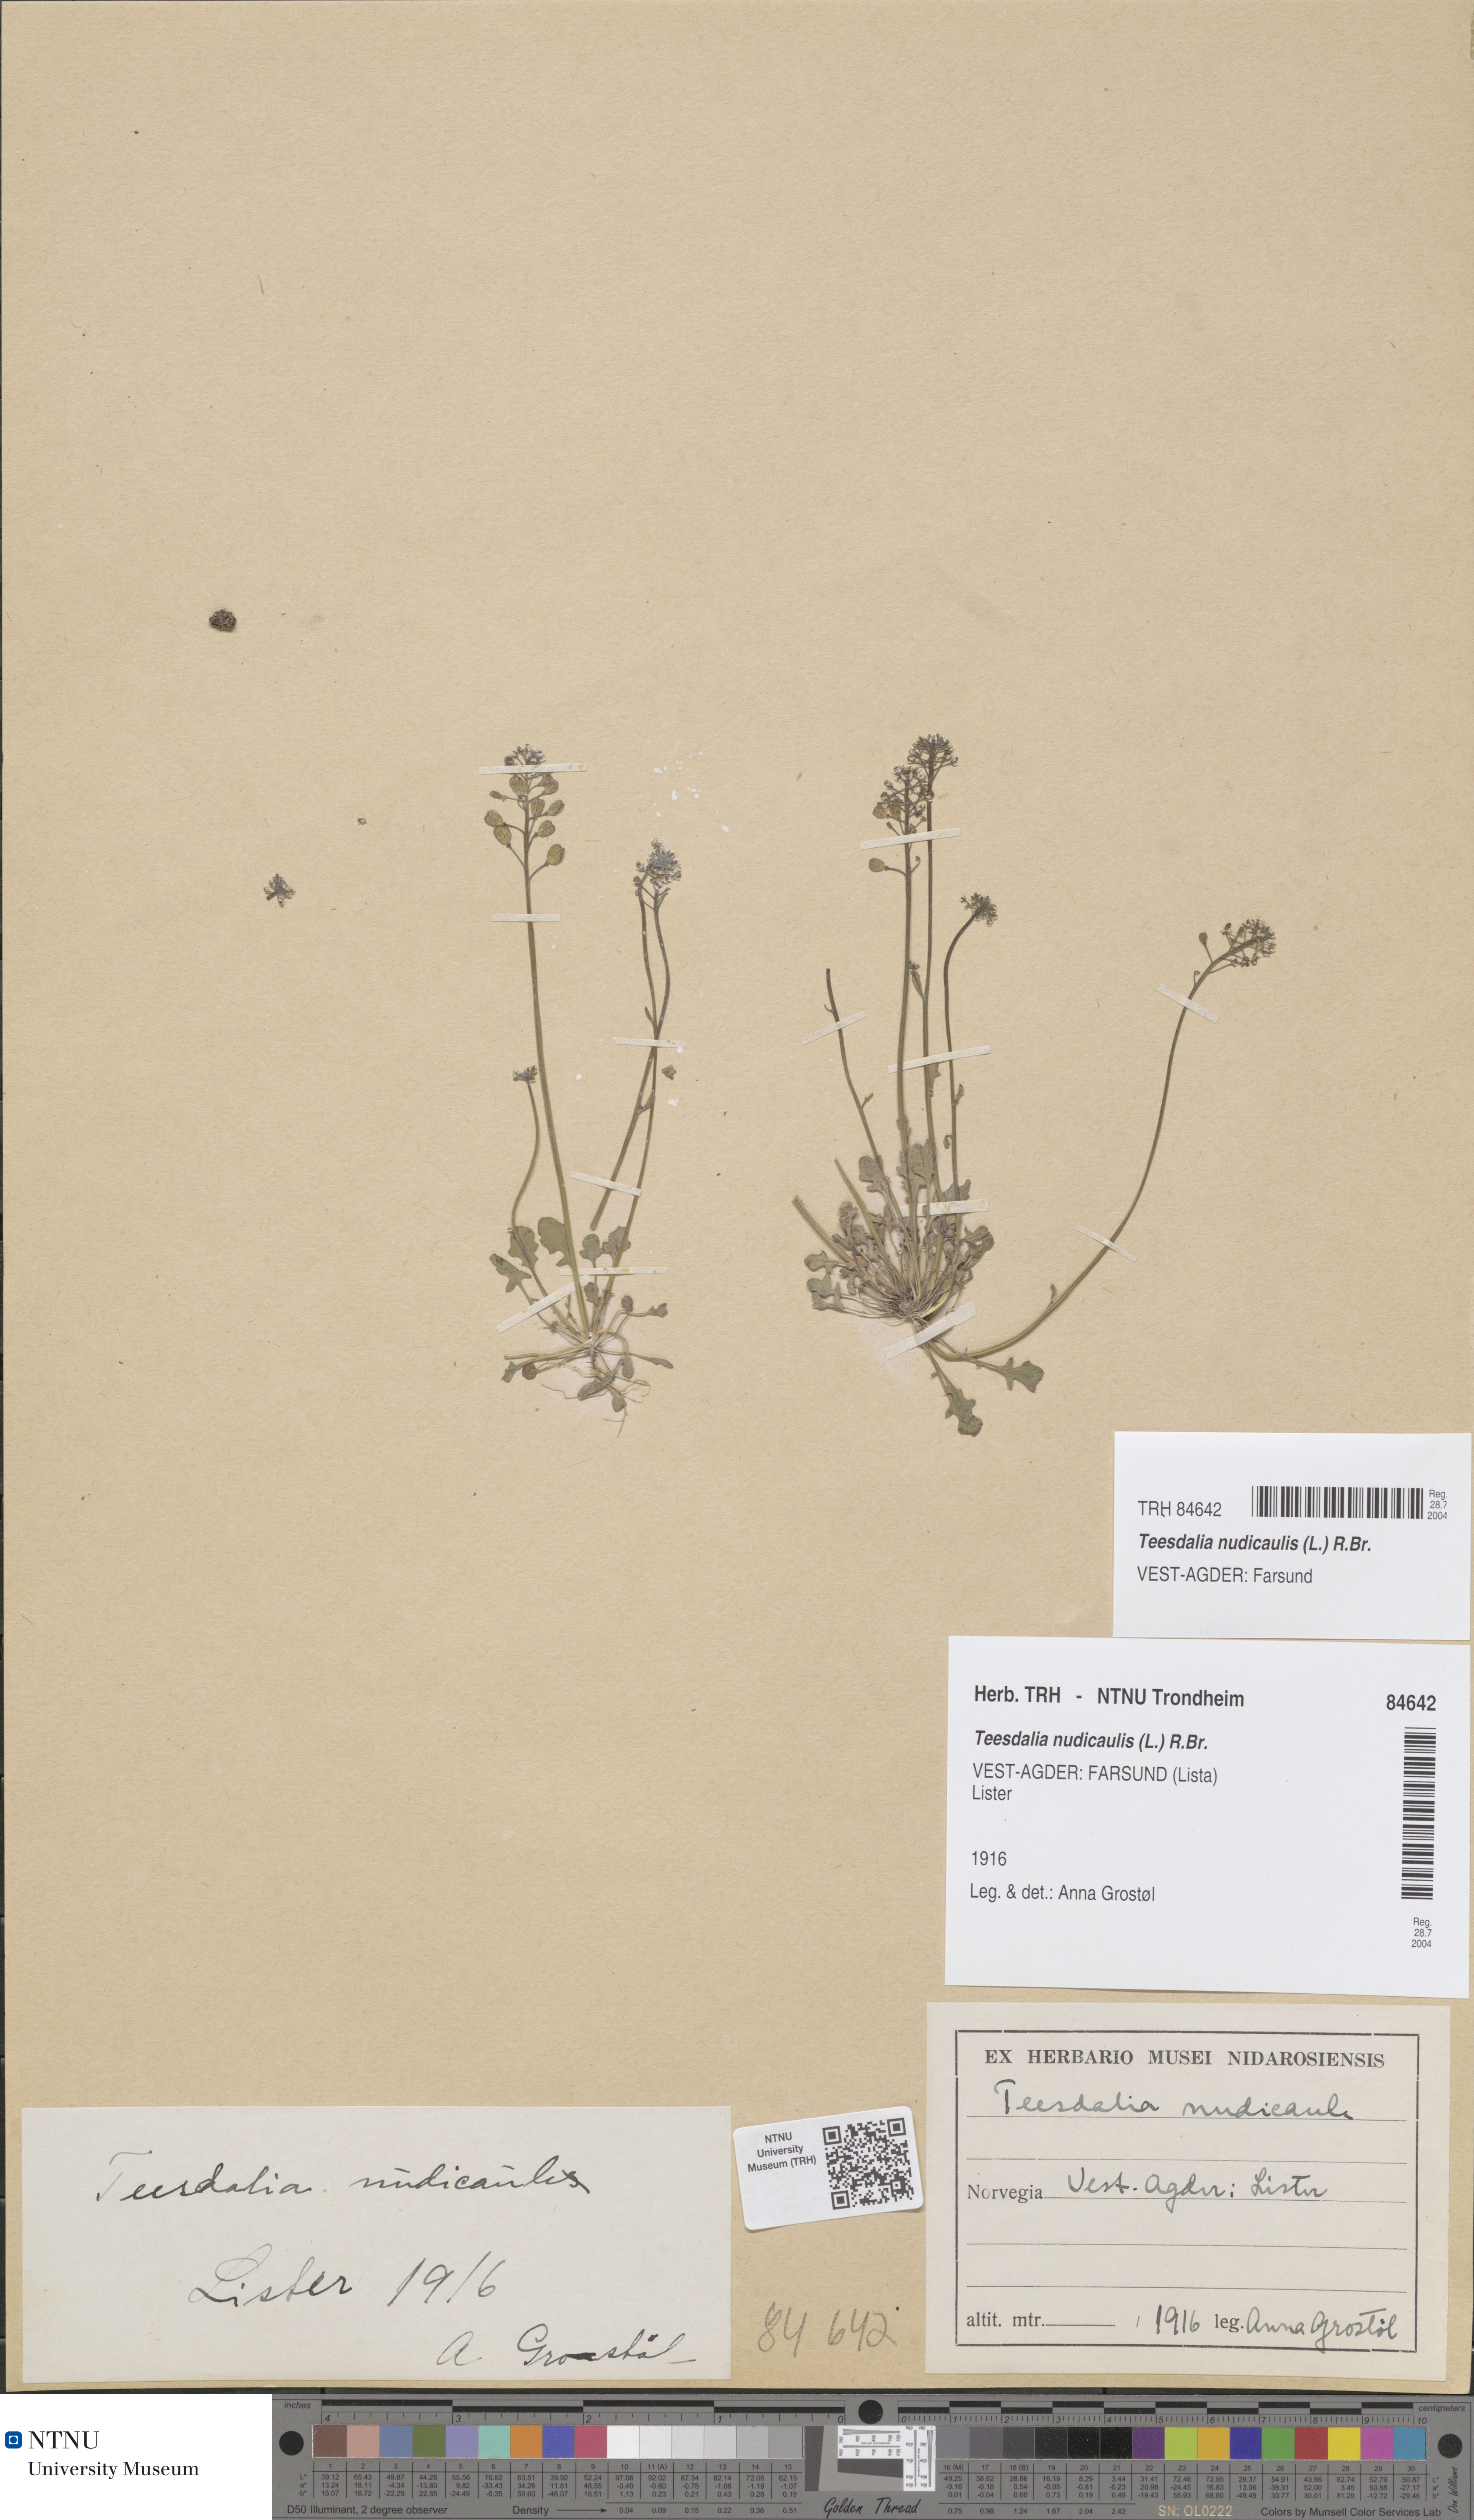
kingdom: Plantae
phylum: Tracheophyta
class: Magnoliopsida
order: Brassicales
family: Brassicaceae
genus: Teesdalia
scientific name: Teesdalia nudicaulis
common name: Shepherd's cress
